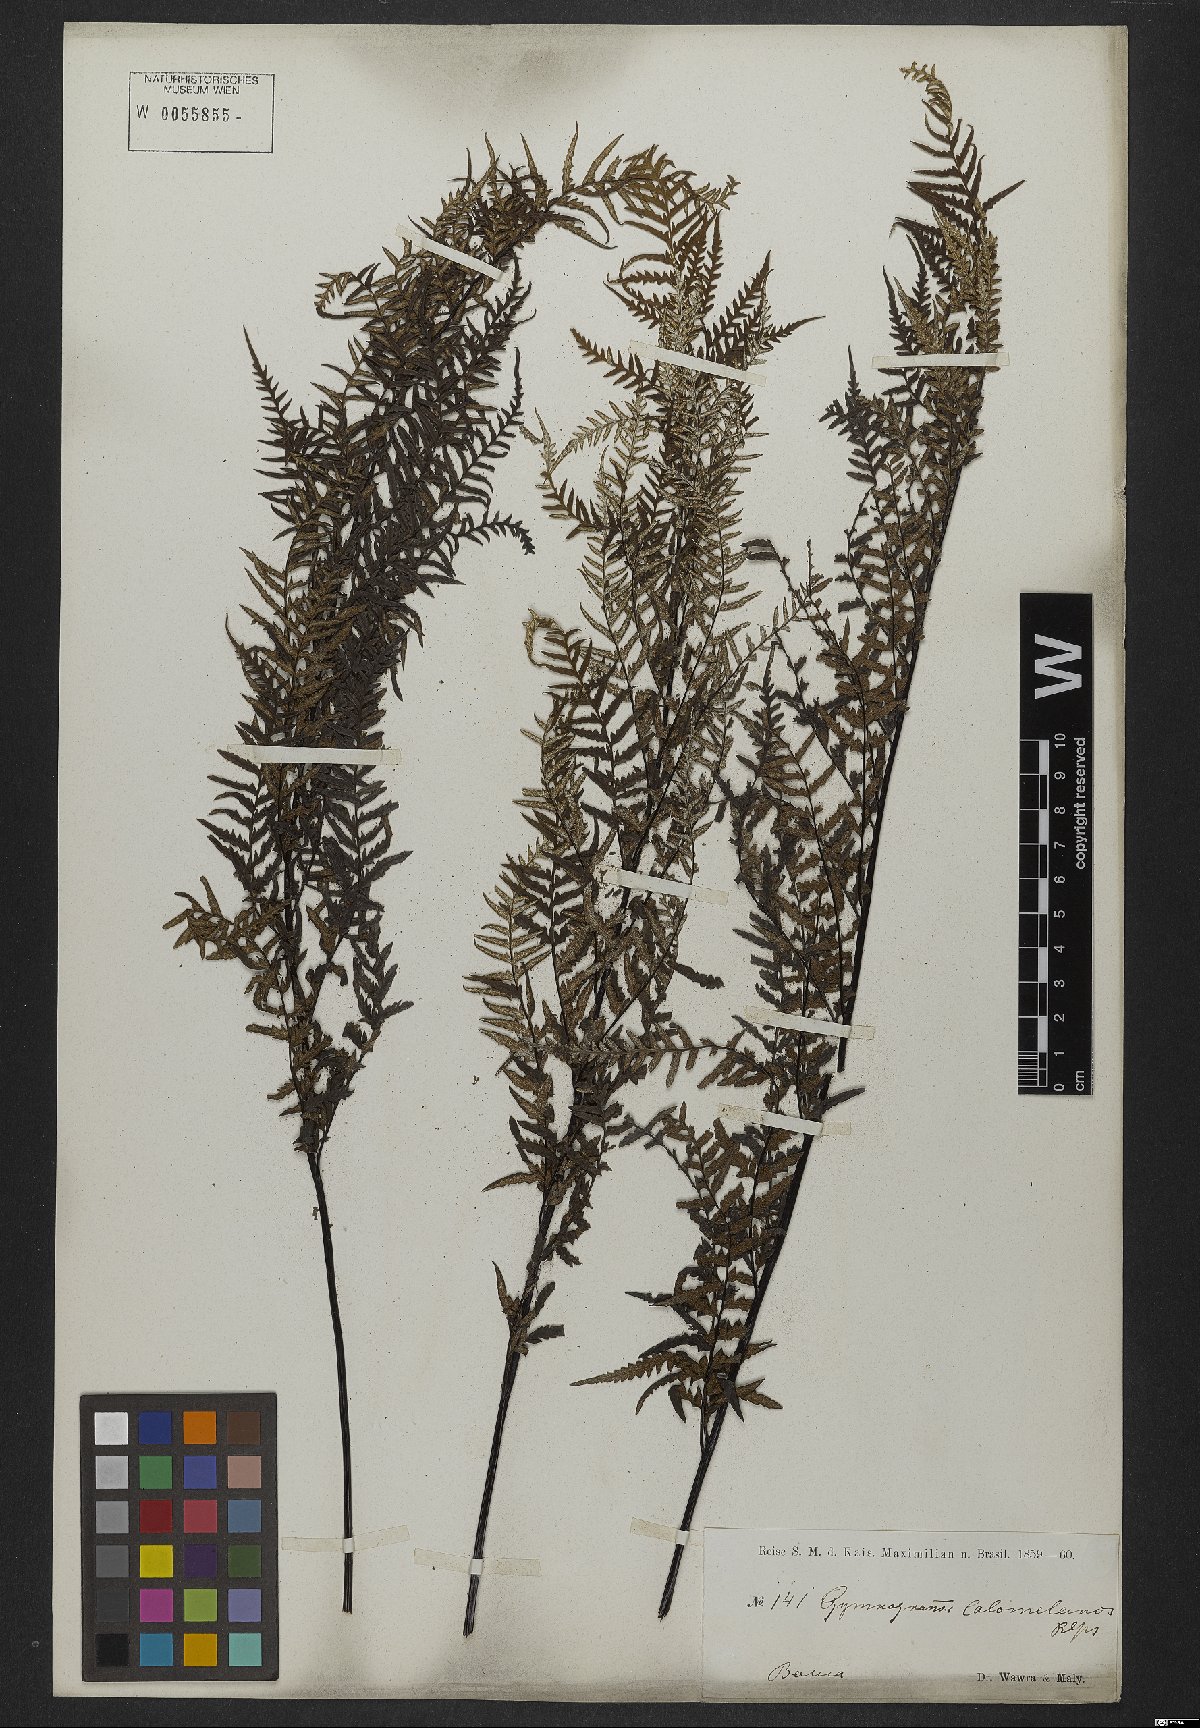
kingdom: Plantae
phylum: Tracheophyta
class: Polypodiopsida
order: Polypodiales
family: Pteridaceae
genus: Pityrogramma
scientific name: Pityrogramma calomelanos
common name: Dixie silverback fern
